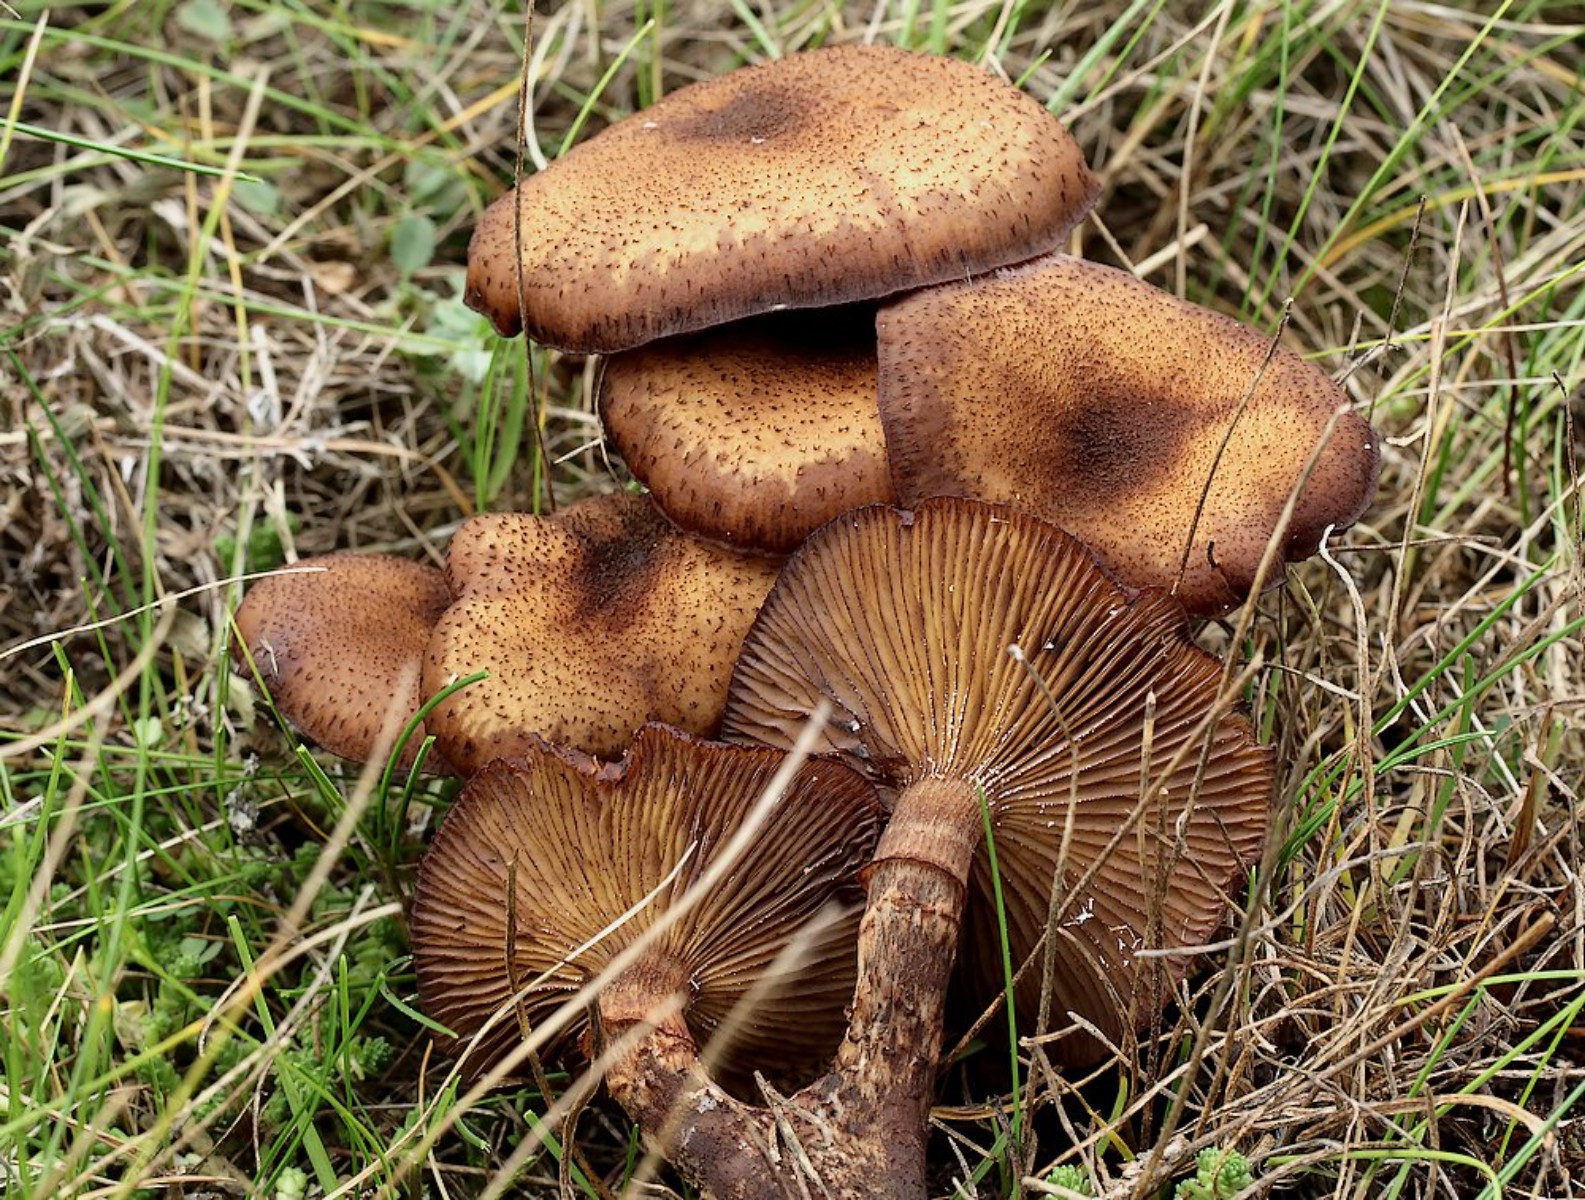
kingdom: Fungi
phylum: Basidiomycota
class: Agaricomycetes
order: Agaricales
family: Physalacriaceae
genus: Armillaria
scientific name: Armillaria ostoyae
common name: mørk honningsvamp
